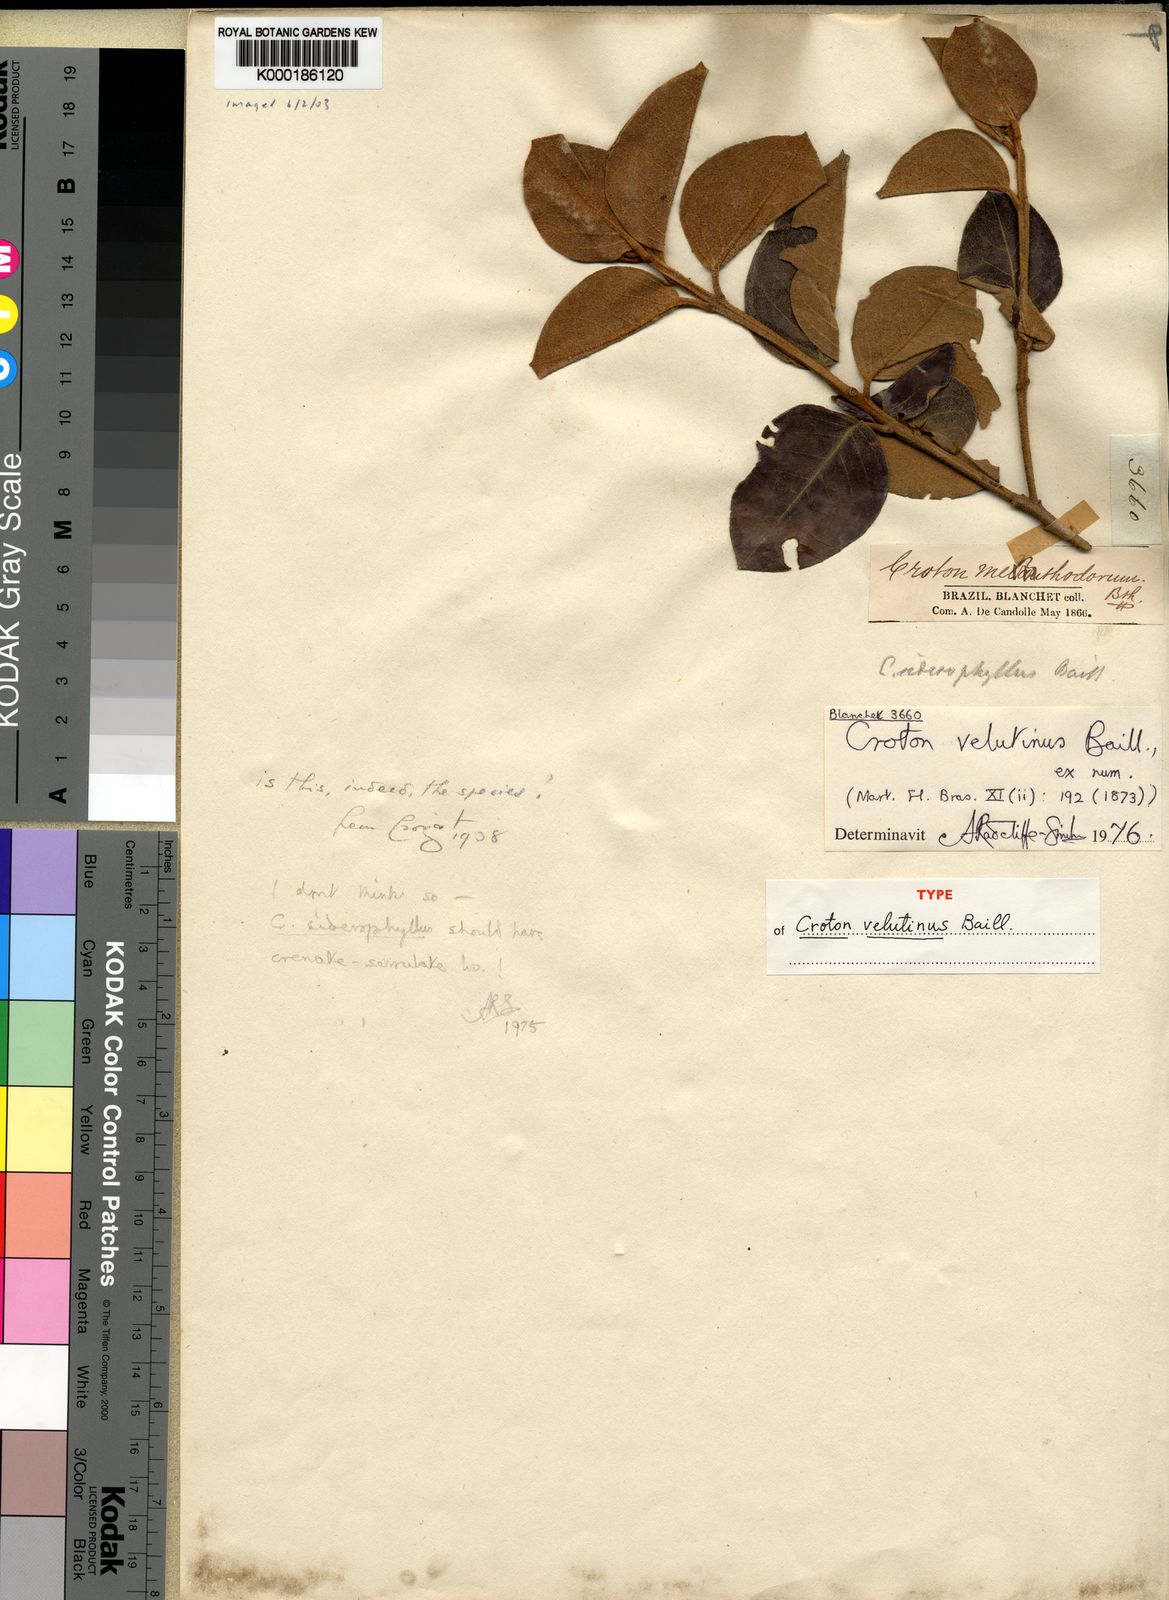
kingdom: Plantae
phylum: Tracheophyta
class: Magnoliopsida
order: Malpighiales
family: Euphorbiaceae
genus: Croton
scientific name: Croton velutinus
